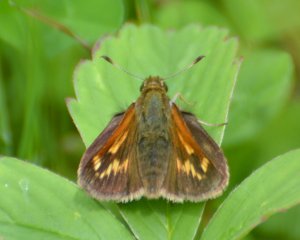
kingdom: Animalia
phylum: Arthropoda
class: Insecta
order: Lepidoptera
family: Hesperiidae
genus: Polites
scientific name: Polites
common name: Long Dash Skipper
